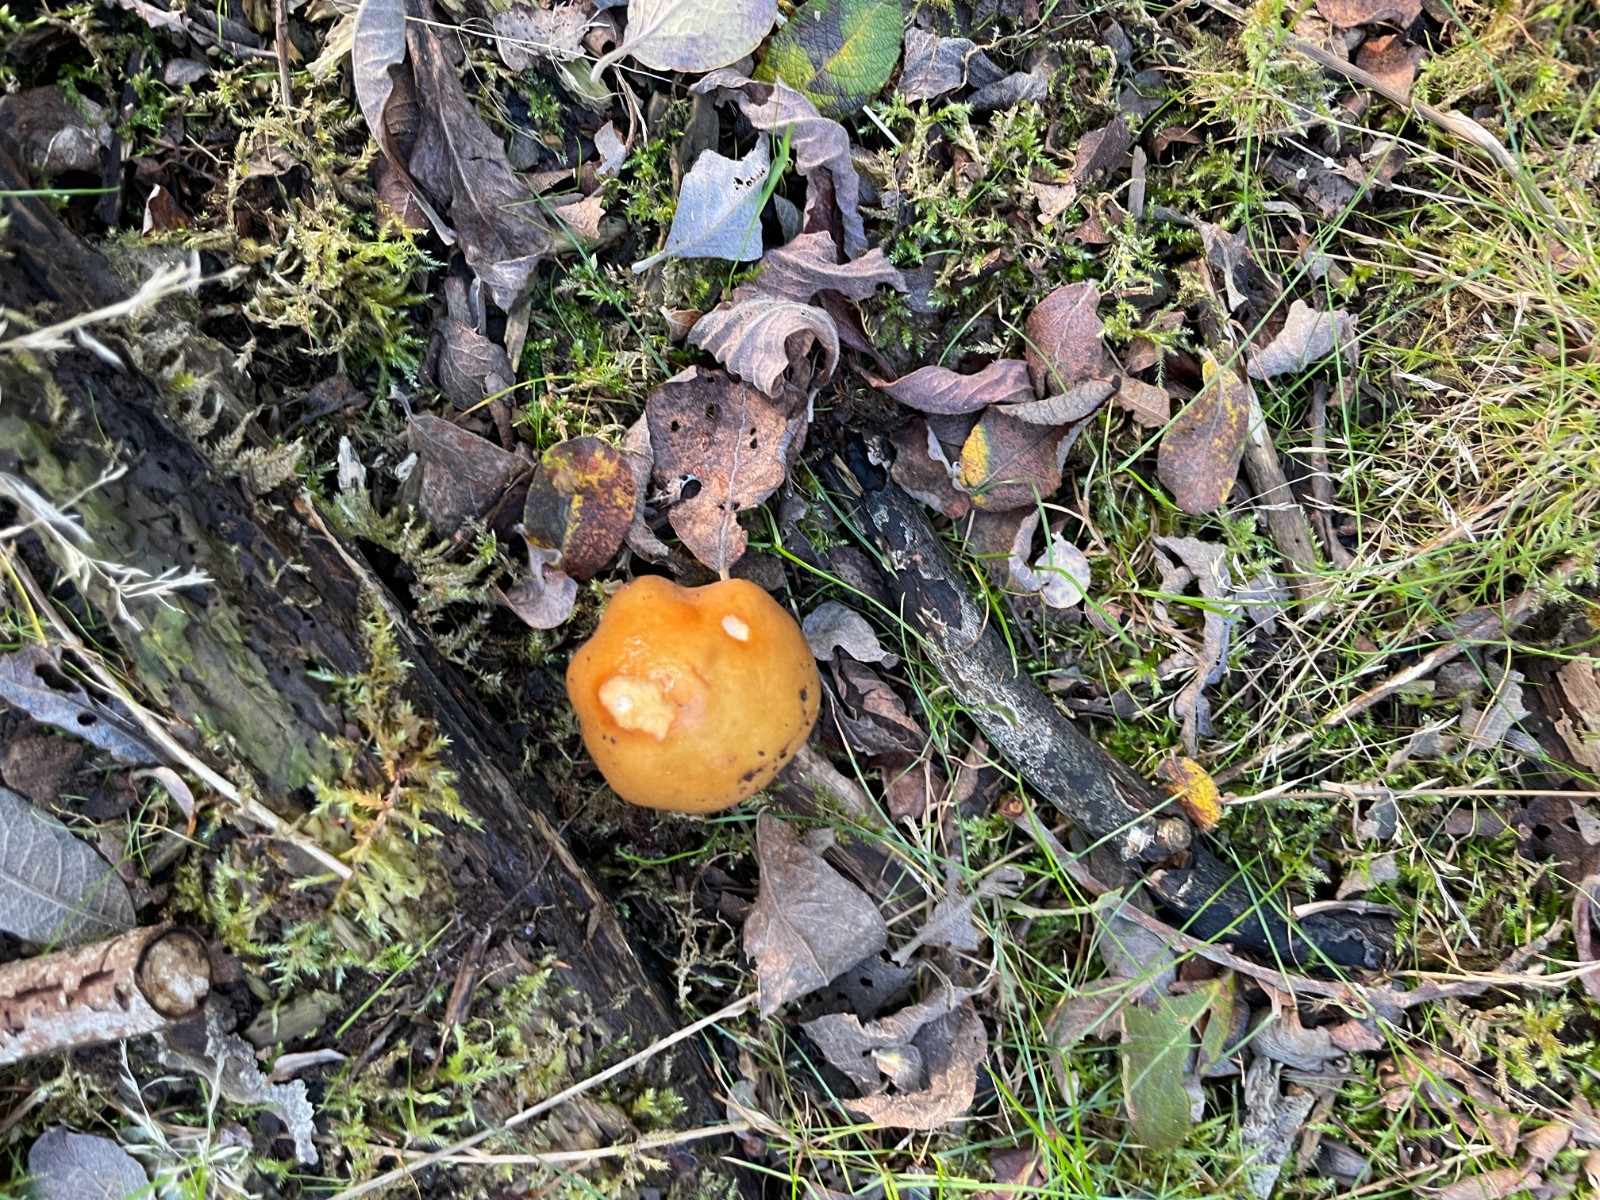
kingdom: Fungi
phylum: Basidiomycota
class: Agaricomycetes
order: Agaricales
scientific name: Agaricales
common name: champignonordenen
